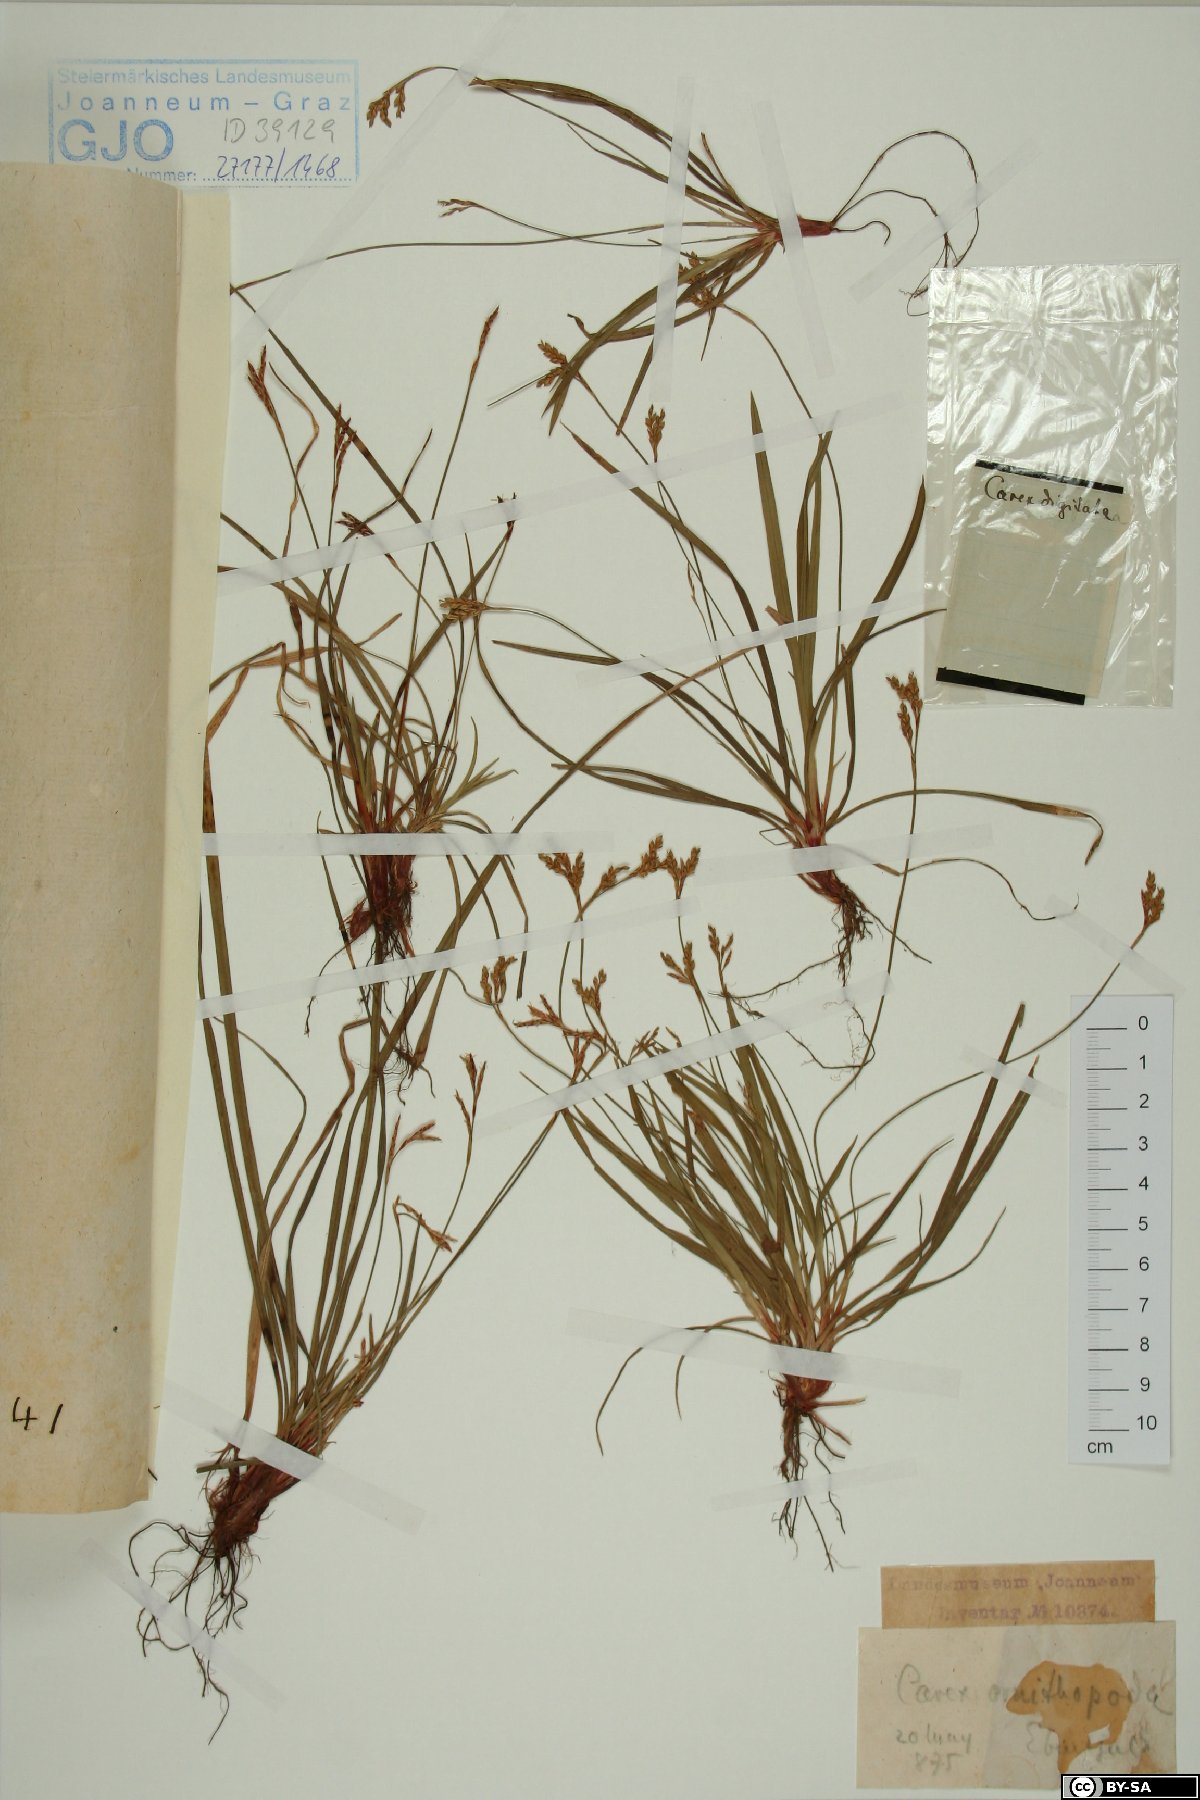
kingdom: Plantae
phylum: Tracheophyta
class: Liliopsida
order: Poales
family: Cyperaceae
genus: Carex
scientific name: Carex ornithopoda
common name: Bird's-foot sedge
